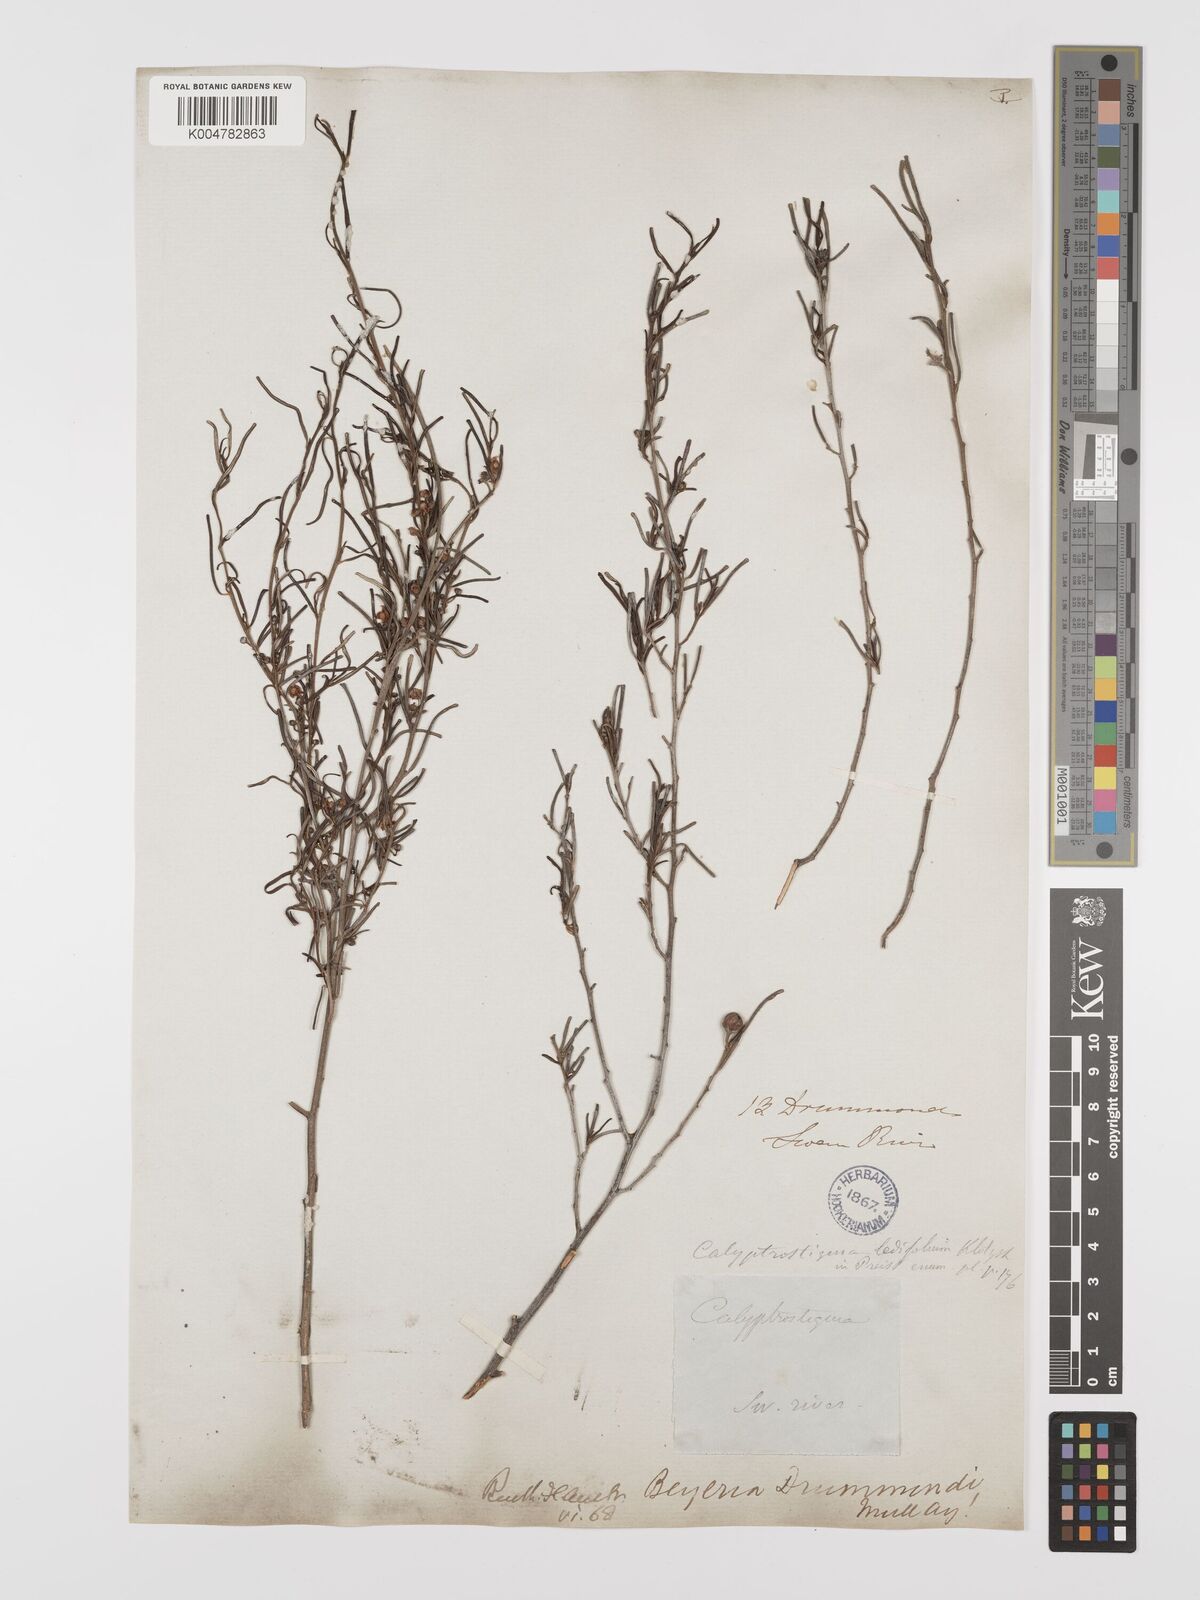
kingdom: Plantae
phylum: Tracheophyta
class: Magnoliopsida
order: Malpighiales
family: Euphorbiaceae
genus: Beyeria
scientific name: Beyeria lechenaultii
